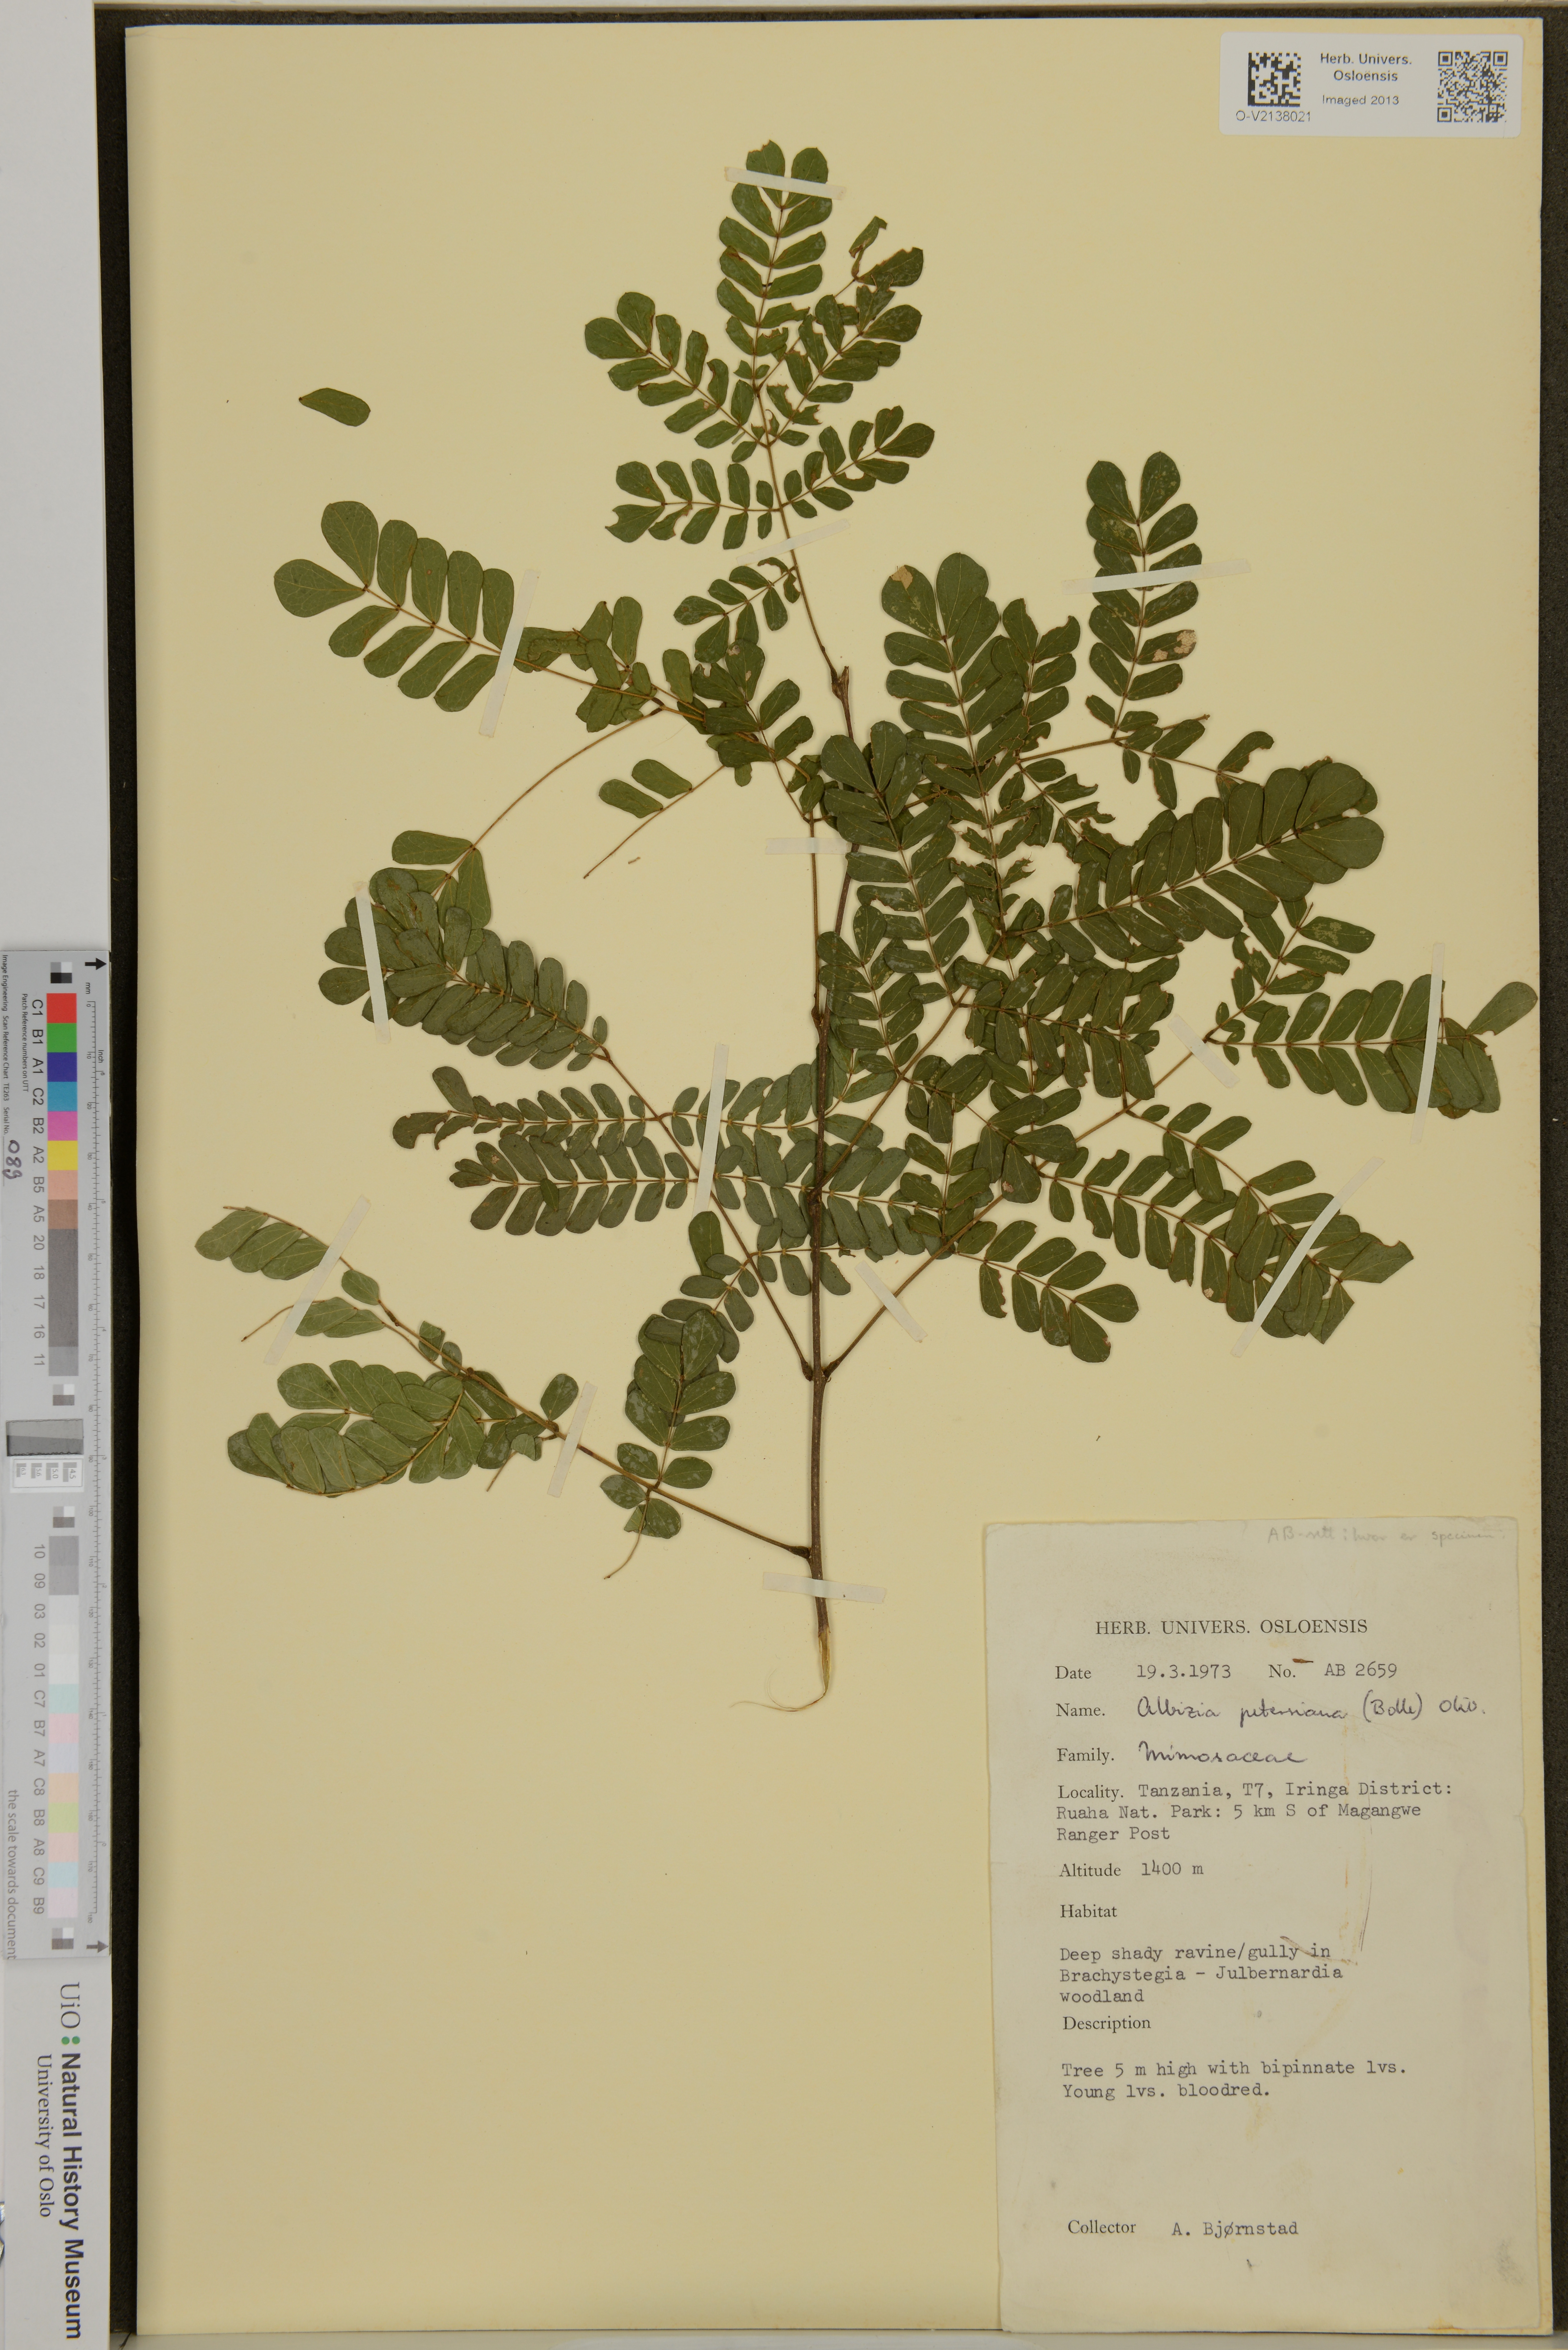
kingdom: Plantae
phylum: Tracheophyta
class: Magnoliopsida
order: Fabales
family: Fabaceae
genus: Albizia
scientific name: Albizia petersiana
